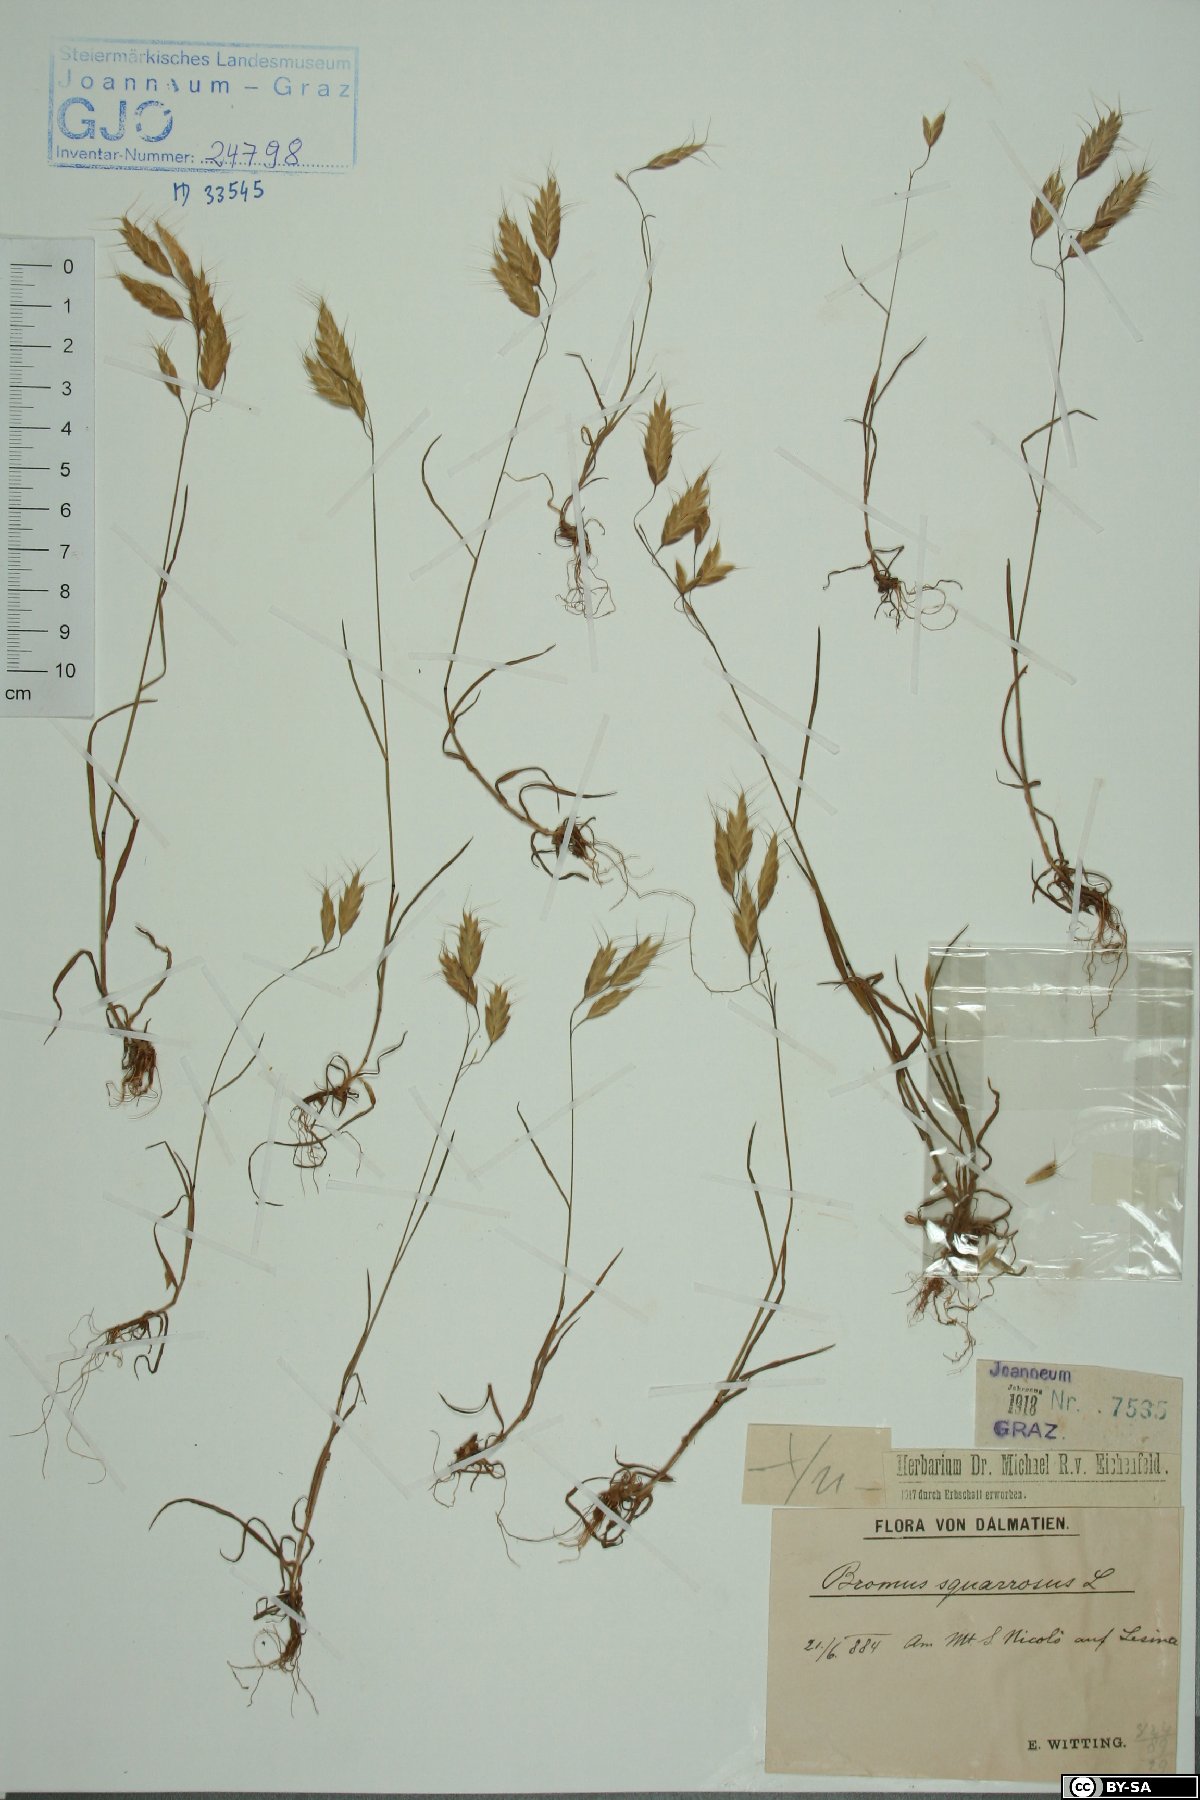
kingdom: Plantae
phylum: Tracheophyta
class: Liliopsida
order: Poales
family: Poaceae
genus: Bromus
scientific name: Bromus squarrosus
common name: Corn brome
